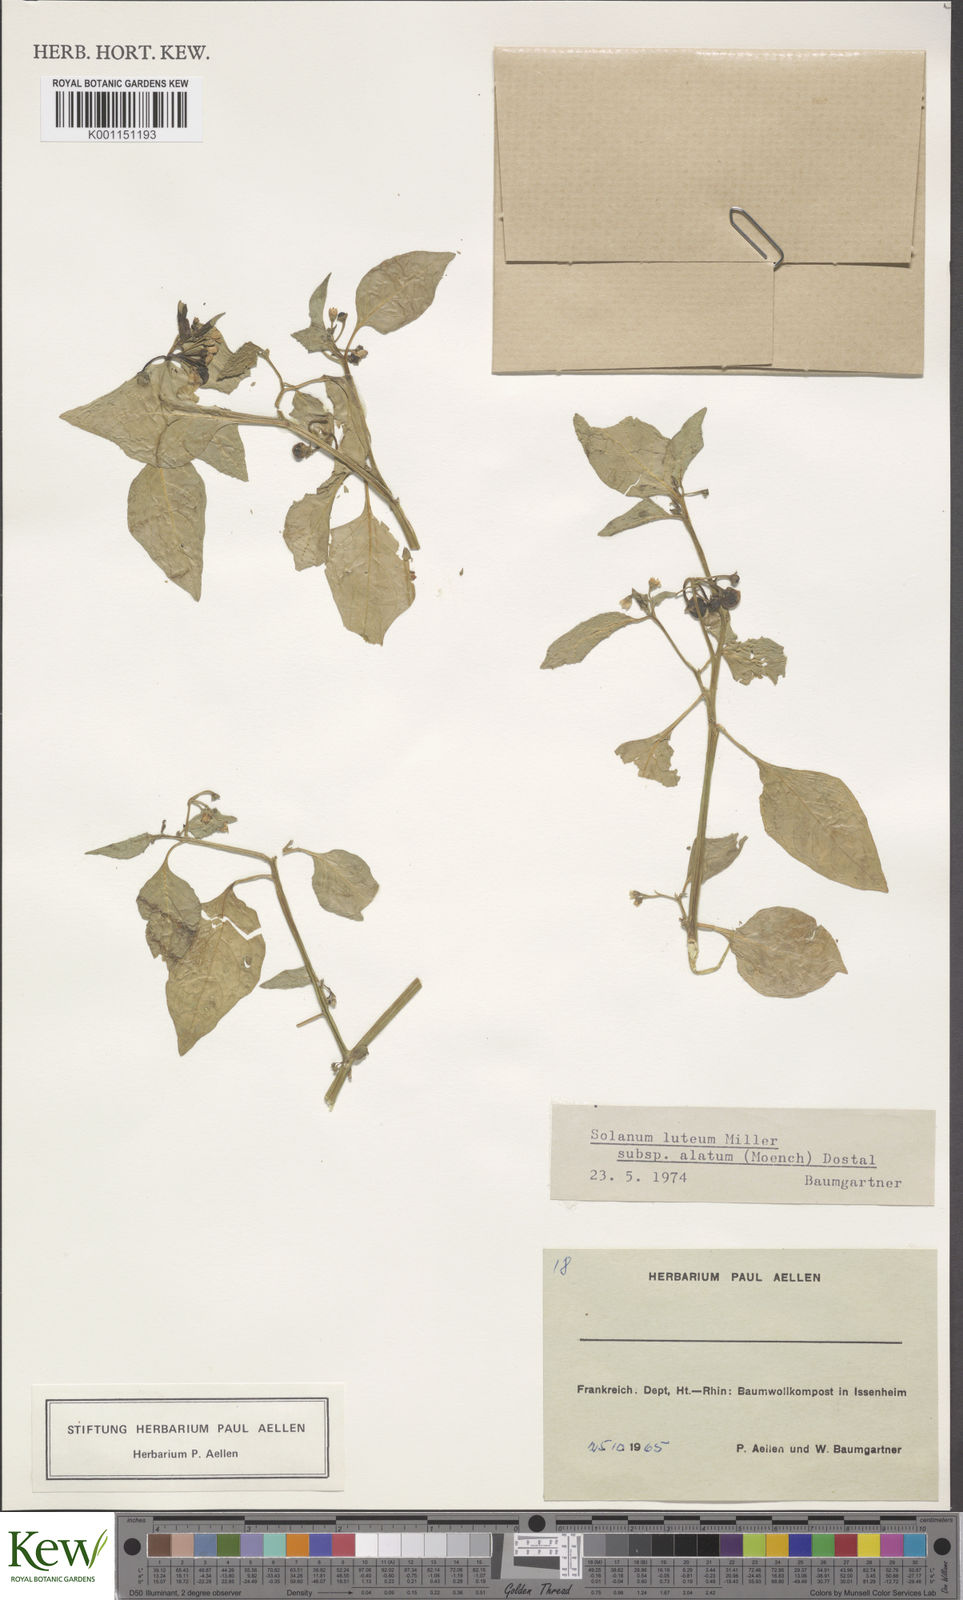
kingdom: Plantae
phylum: Tracheophyta
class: Magnoliopsida
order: Solanales
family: Solanaceae
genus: Solanum
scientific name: Solanum alatum
